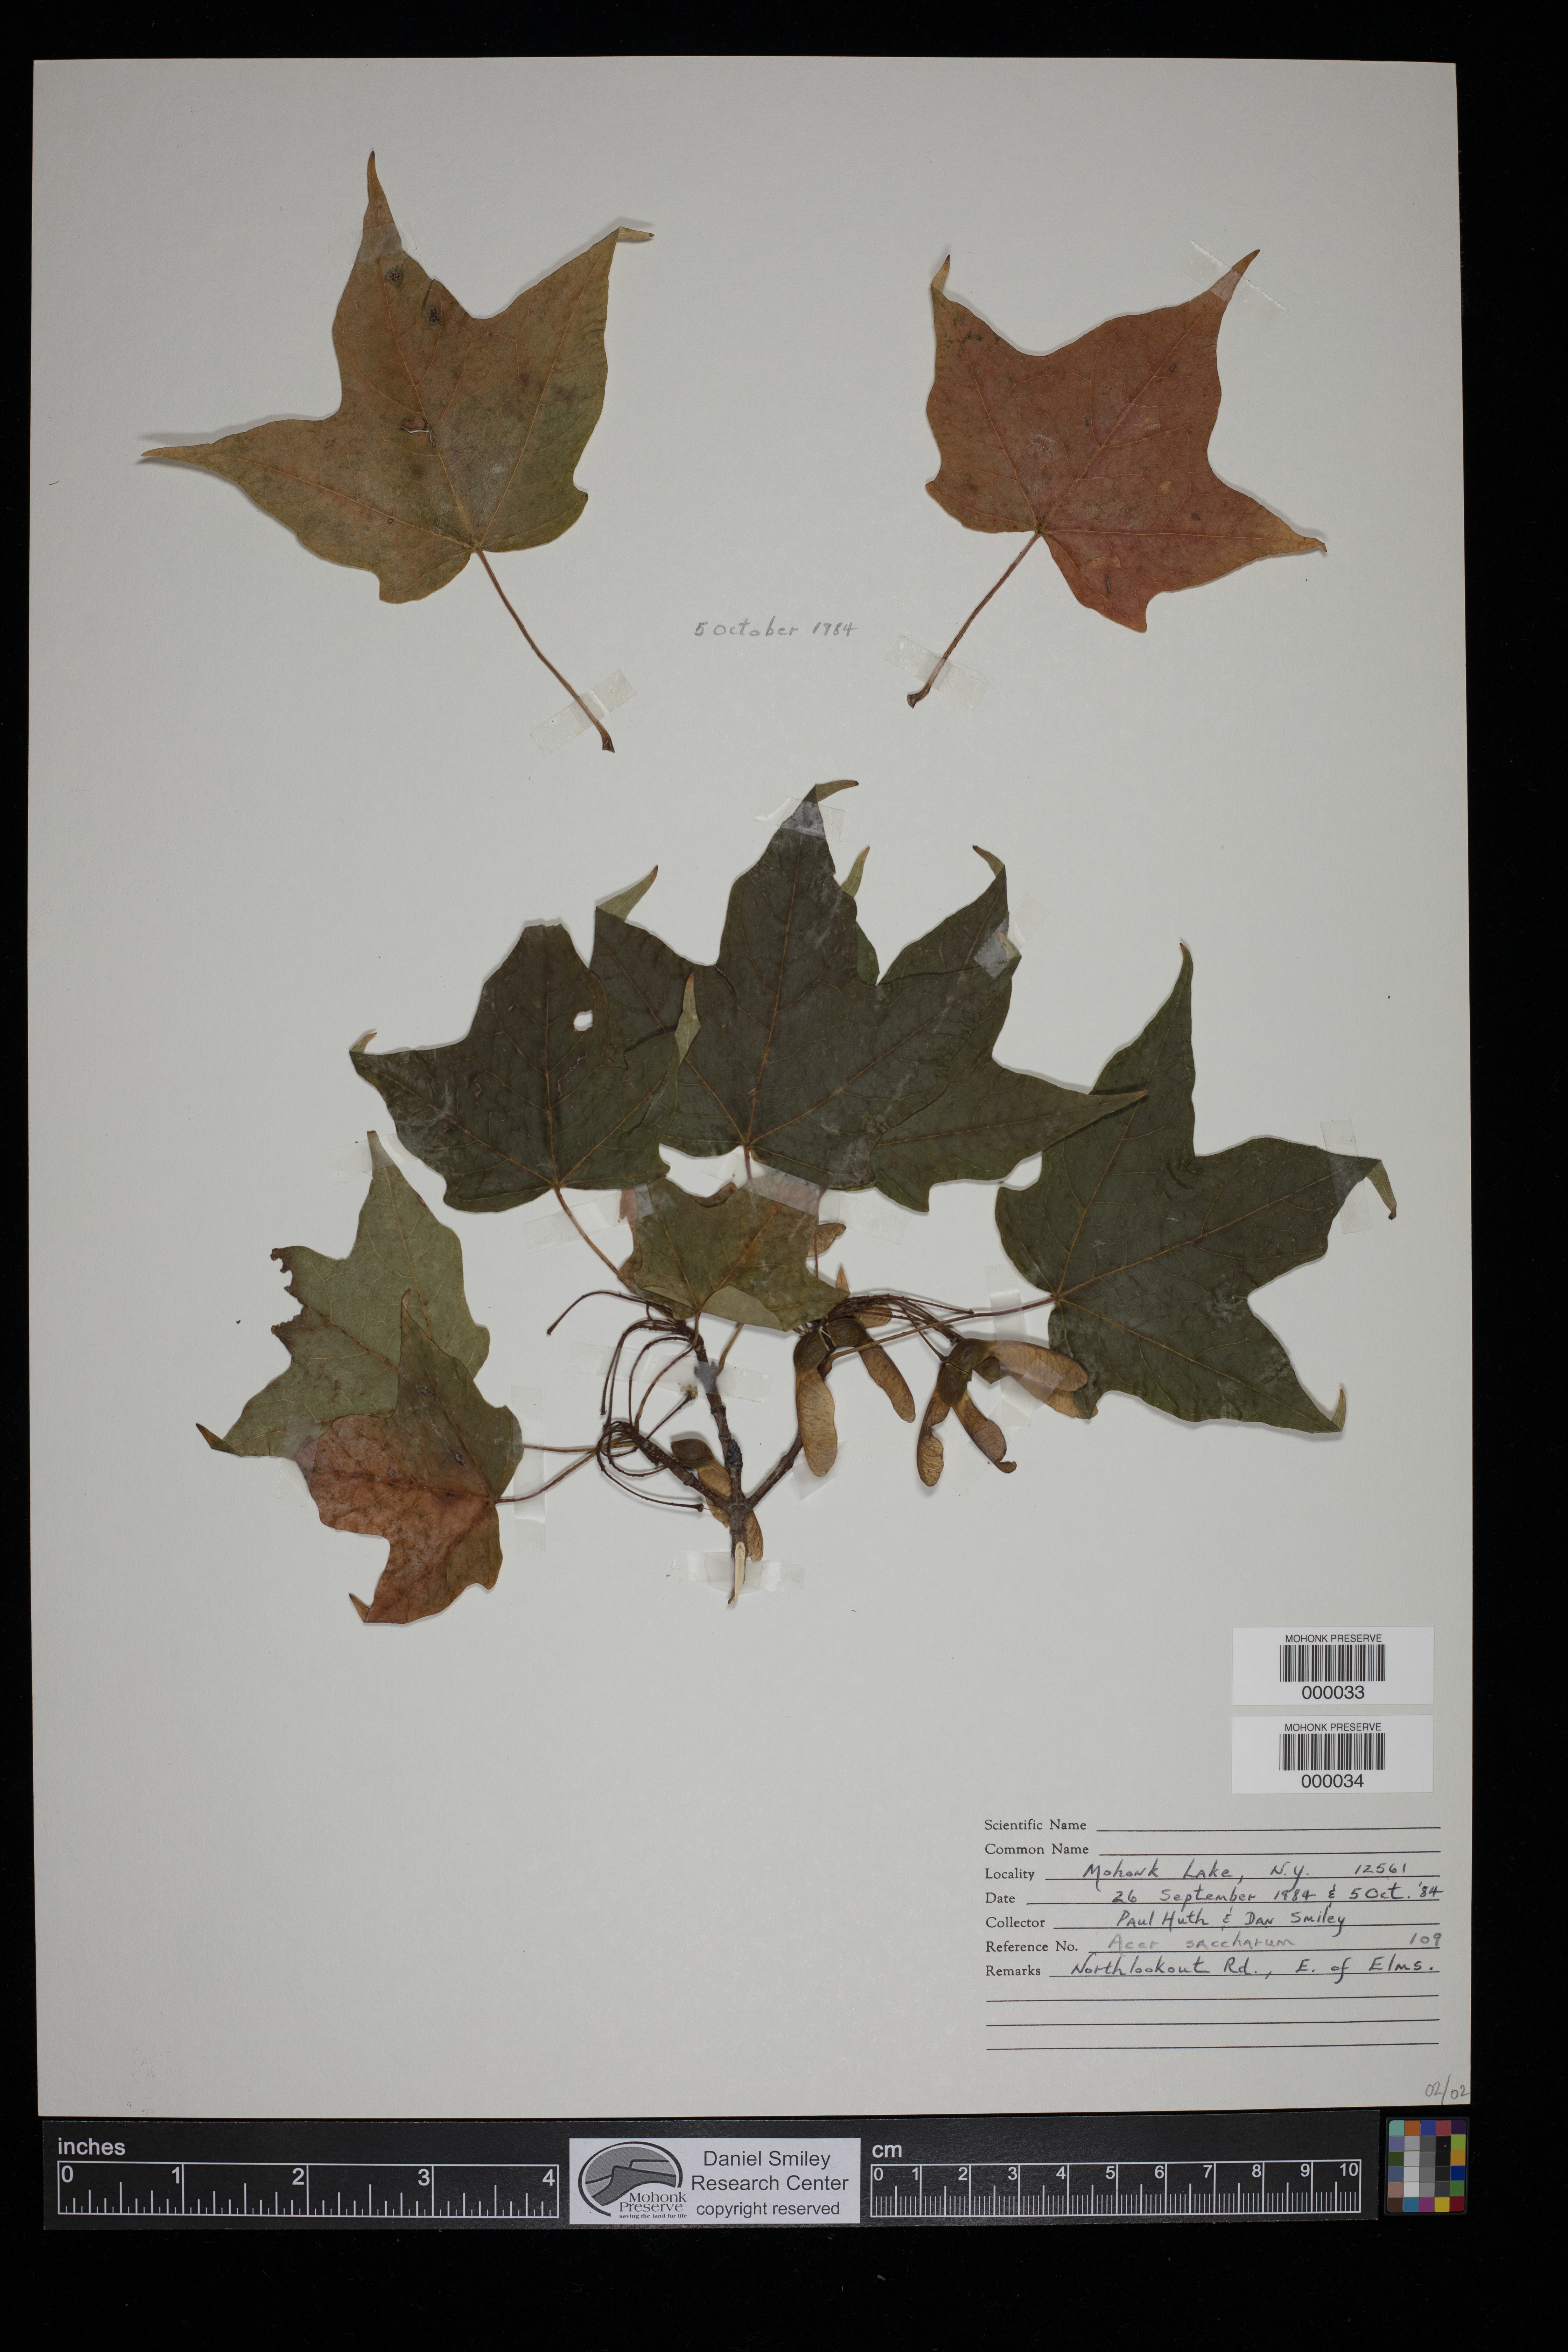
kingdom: Plantae
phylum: Tracheophyta
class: Magnoliopsida
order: Sapindales
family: Sapindaceae
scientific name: Sapindaceae
